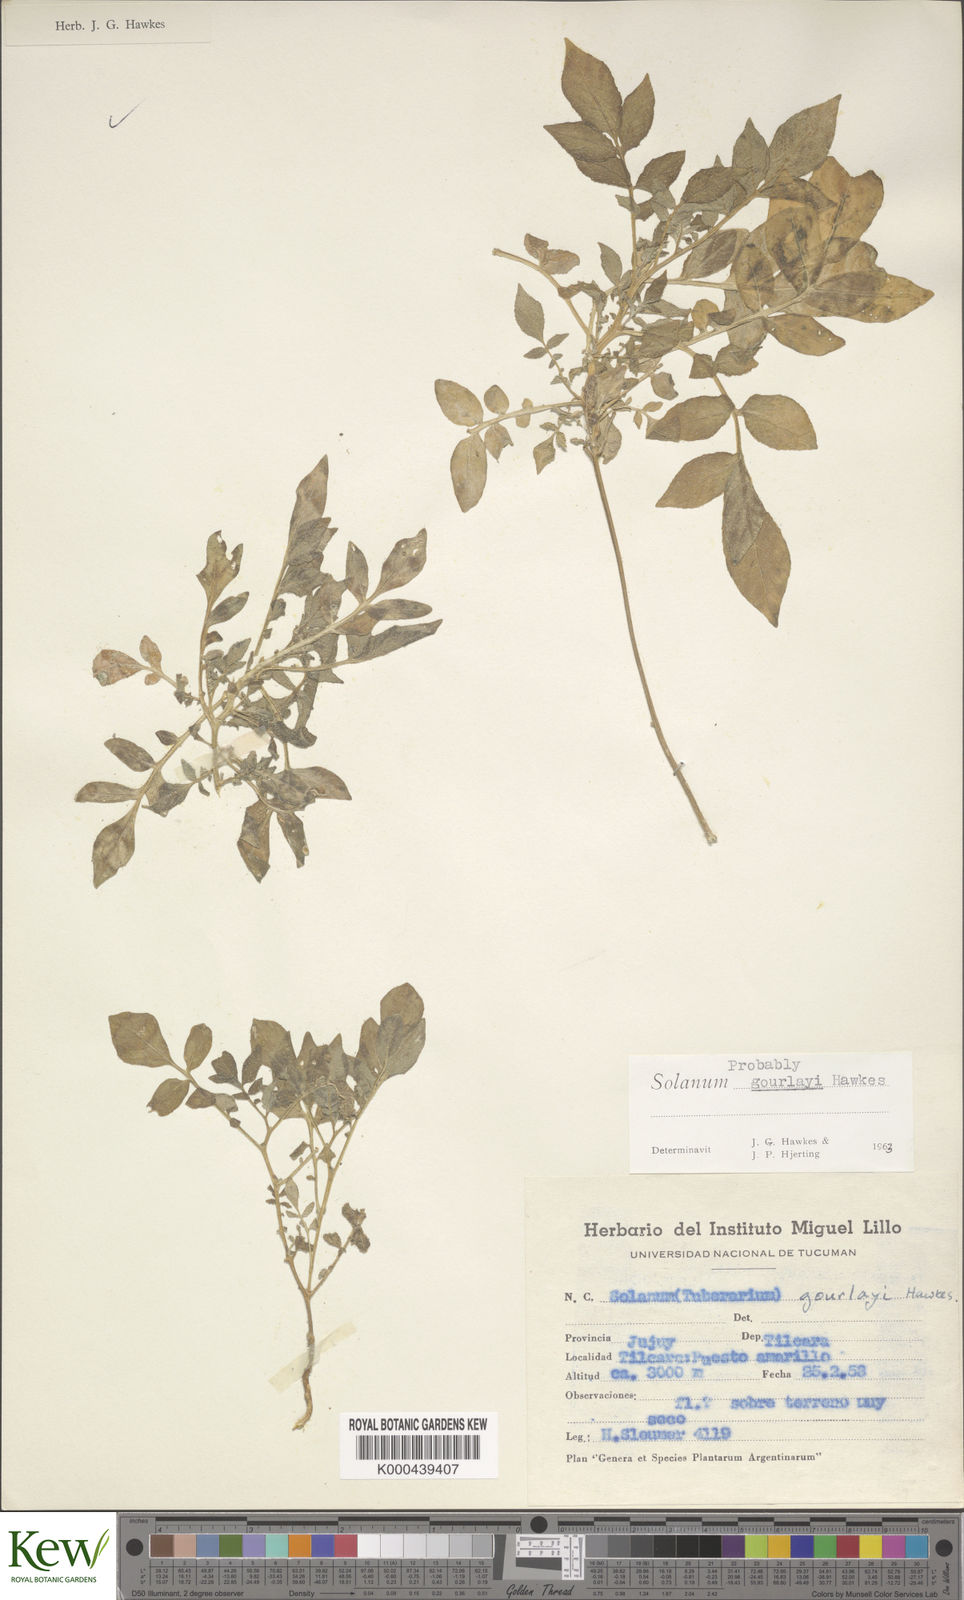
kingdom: Plantae
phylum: Tracheophyta
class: Magnoliopsida
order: Solanales
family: Solanaceae
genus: Solanum
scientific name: Solanum brevicaule
